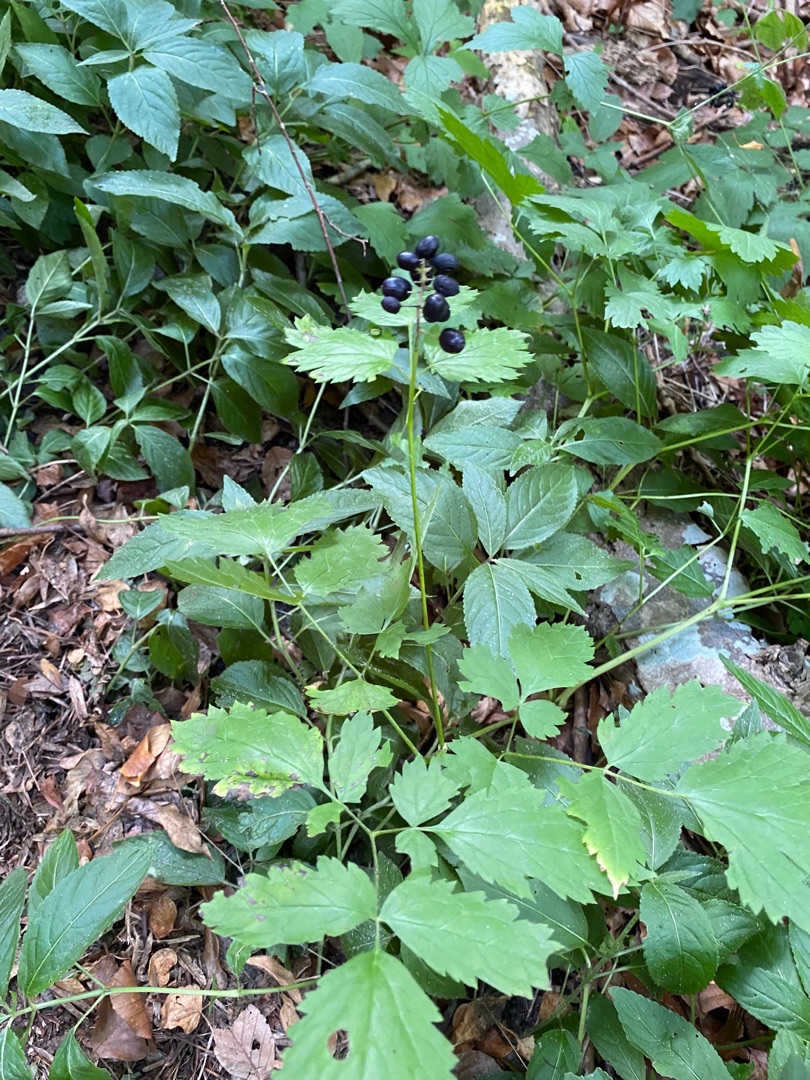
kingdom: Plantae
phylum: Tracheophyta
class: Magnoliopsida
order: Ranunculales
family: Ranunculaceae
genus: Actaea
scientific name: Actaea spicata
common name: Druemunke
